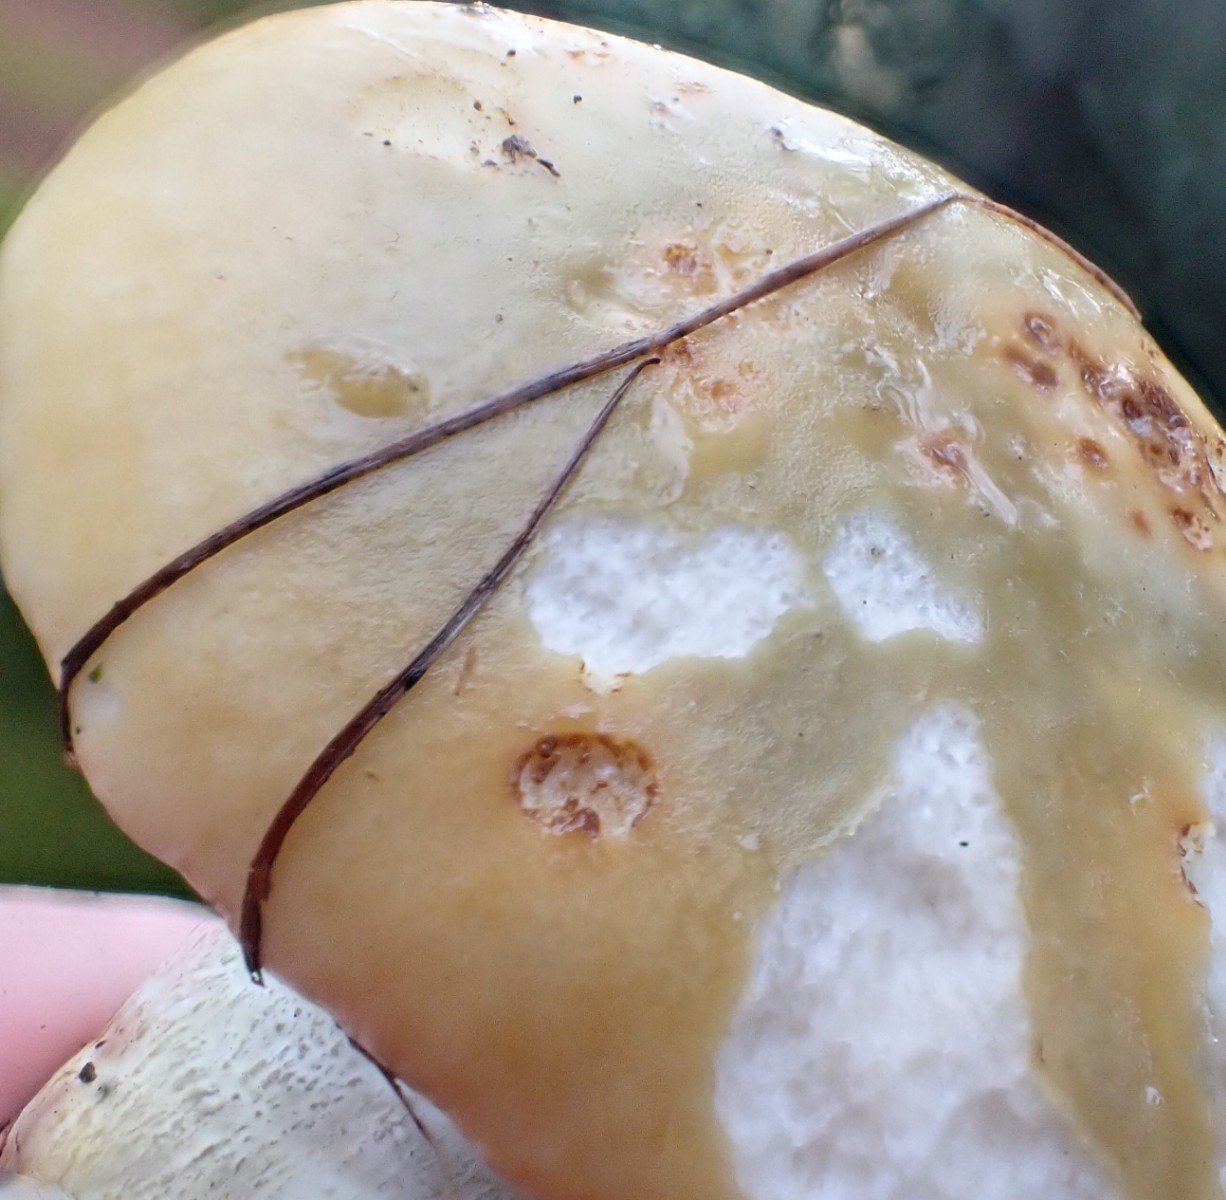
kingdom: Fungi
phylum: Basidiomycota
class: Agaricomycetes
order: Russulales
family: Russulaceae
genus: Russula
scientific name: Russula ochroleuca
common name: okkergul skørhat
